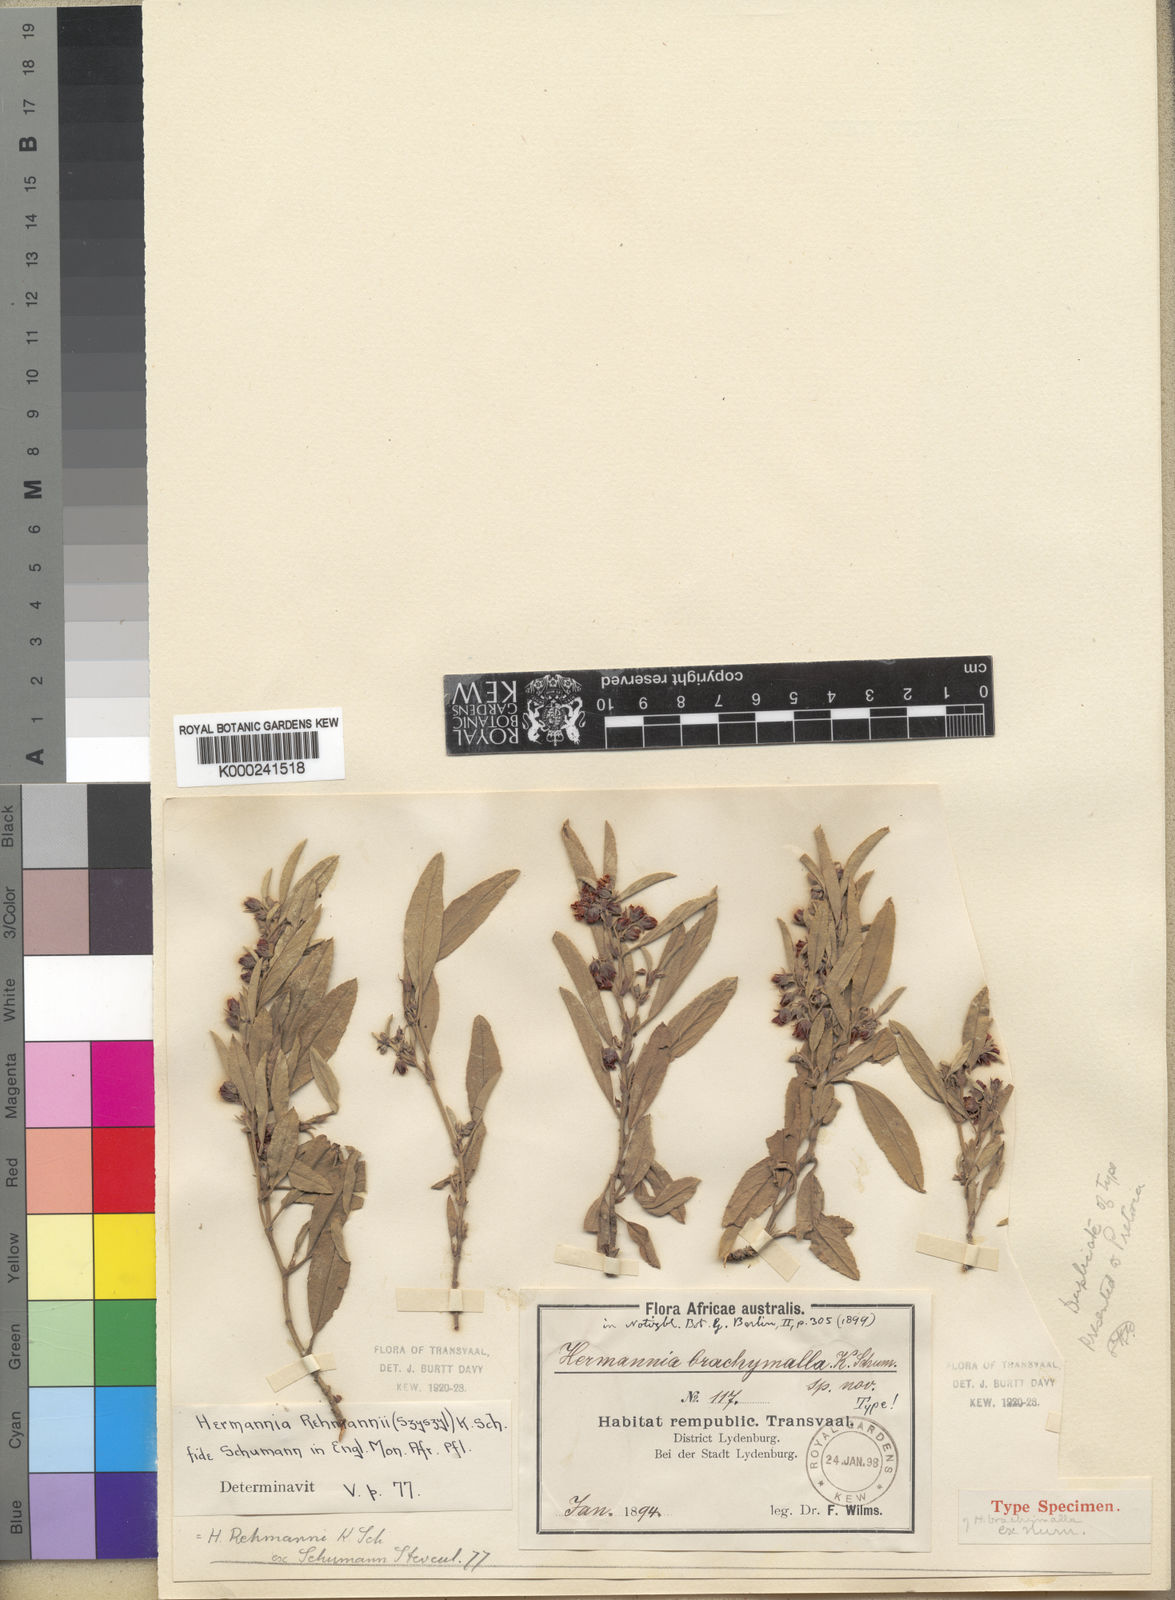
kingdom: Plantae
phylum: Tracheophyta
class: Magnoliopsida
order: Malvales
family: Malvaceae
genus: Hermannia
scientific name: Hermannia brachymalla
